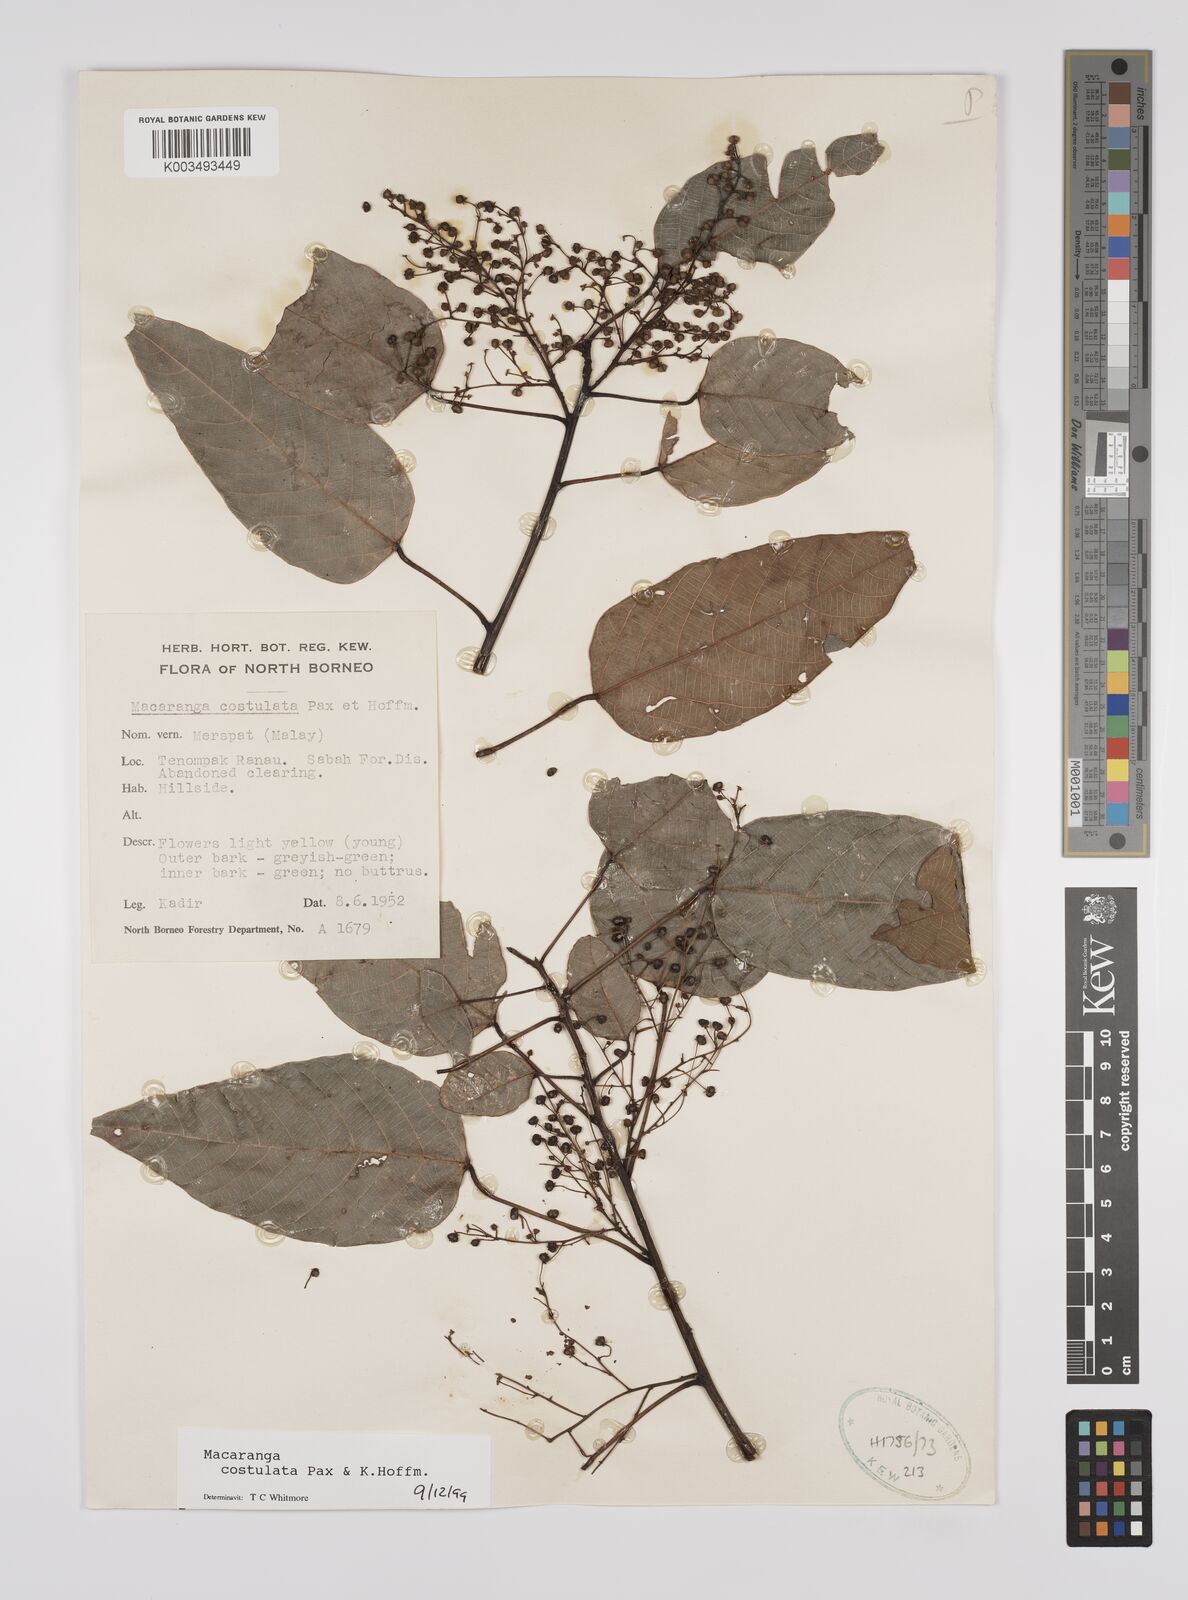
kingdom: Plantae
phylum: Tracheophyta
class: Magnoliopsida
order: Malpighiales
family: Euphorbiaceae
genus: Macaranga
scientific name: Macaranga costulata
